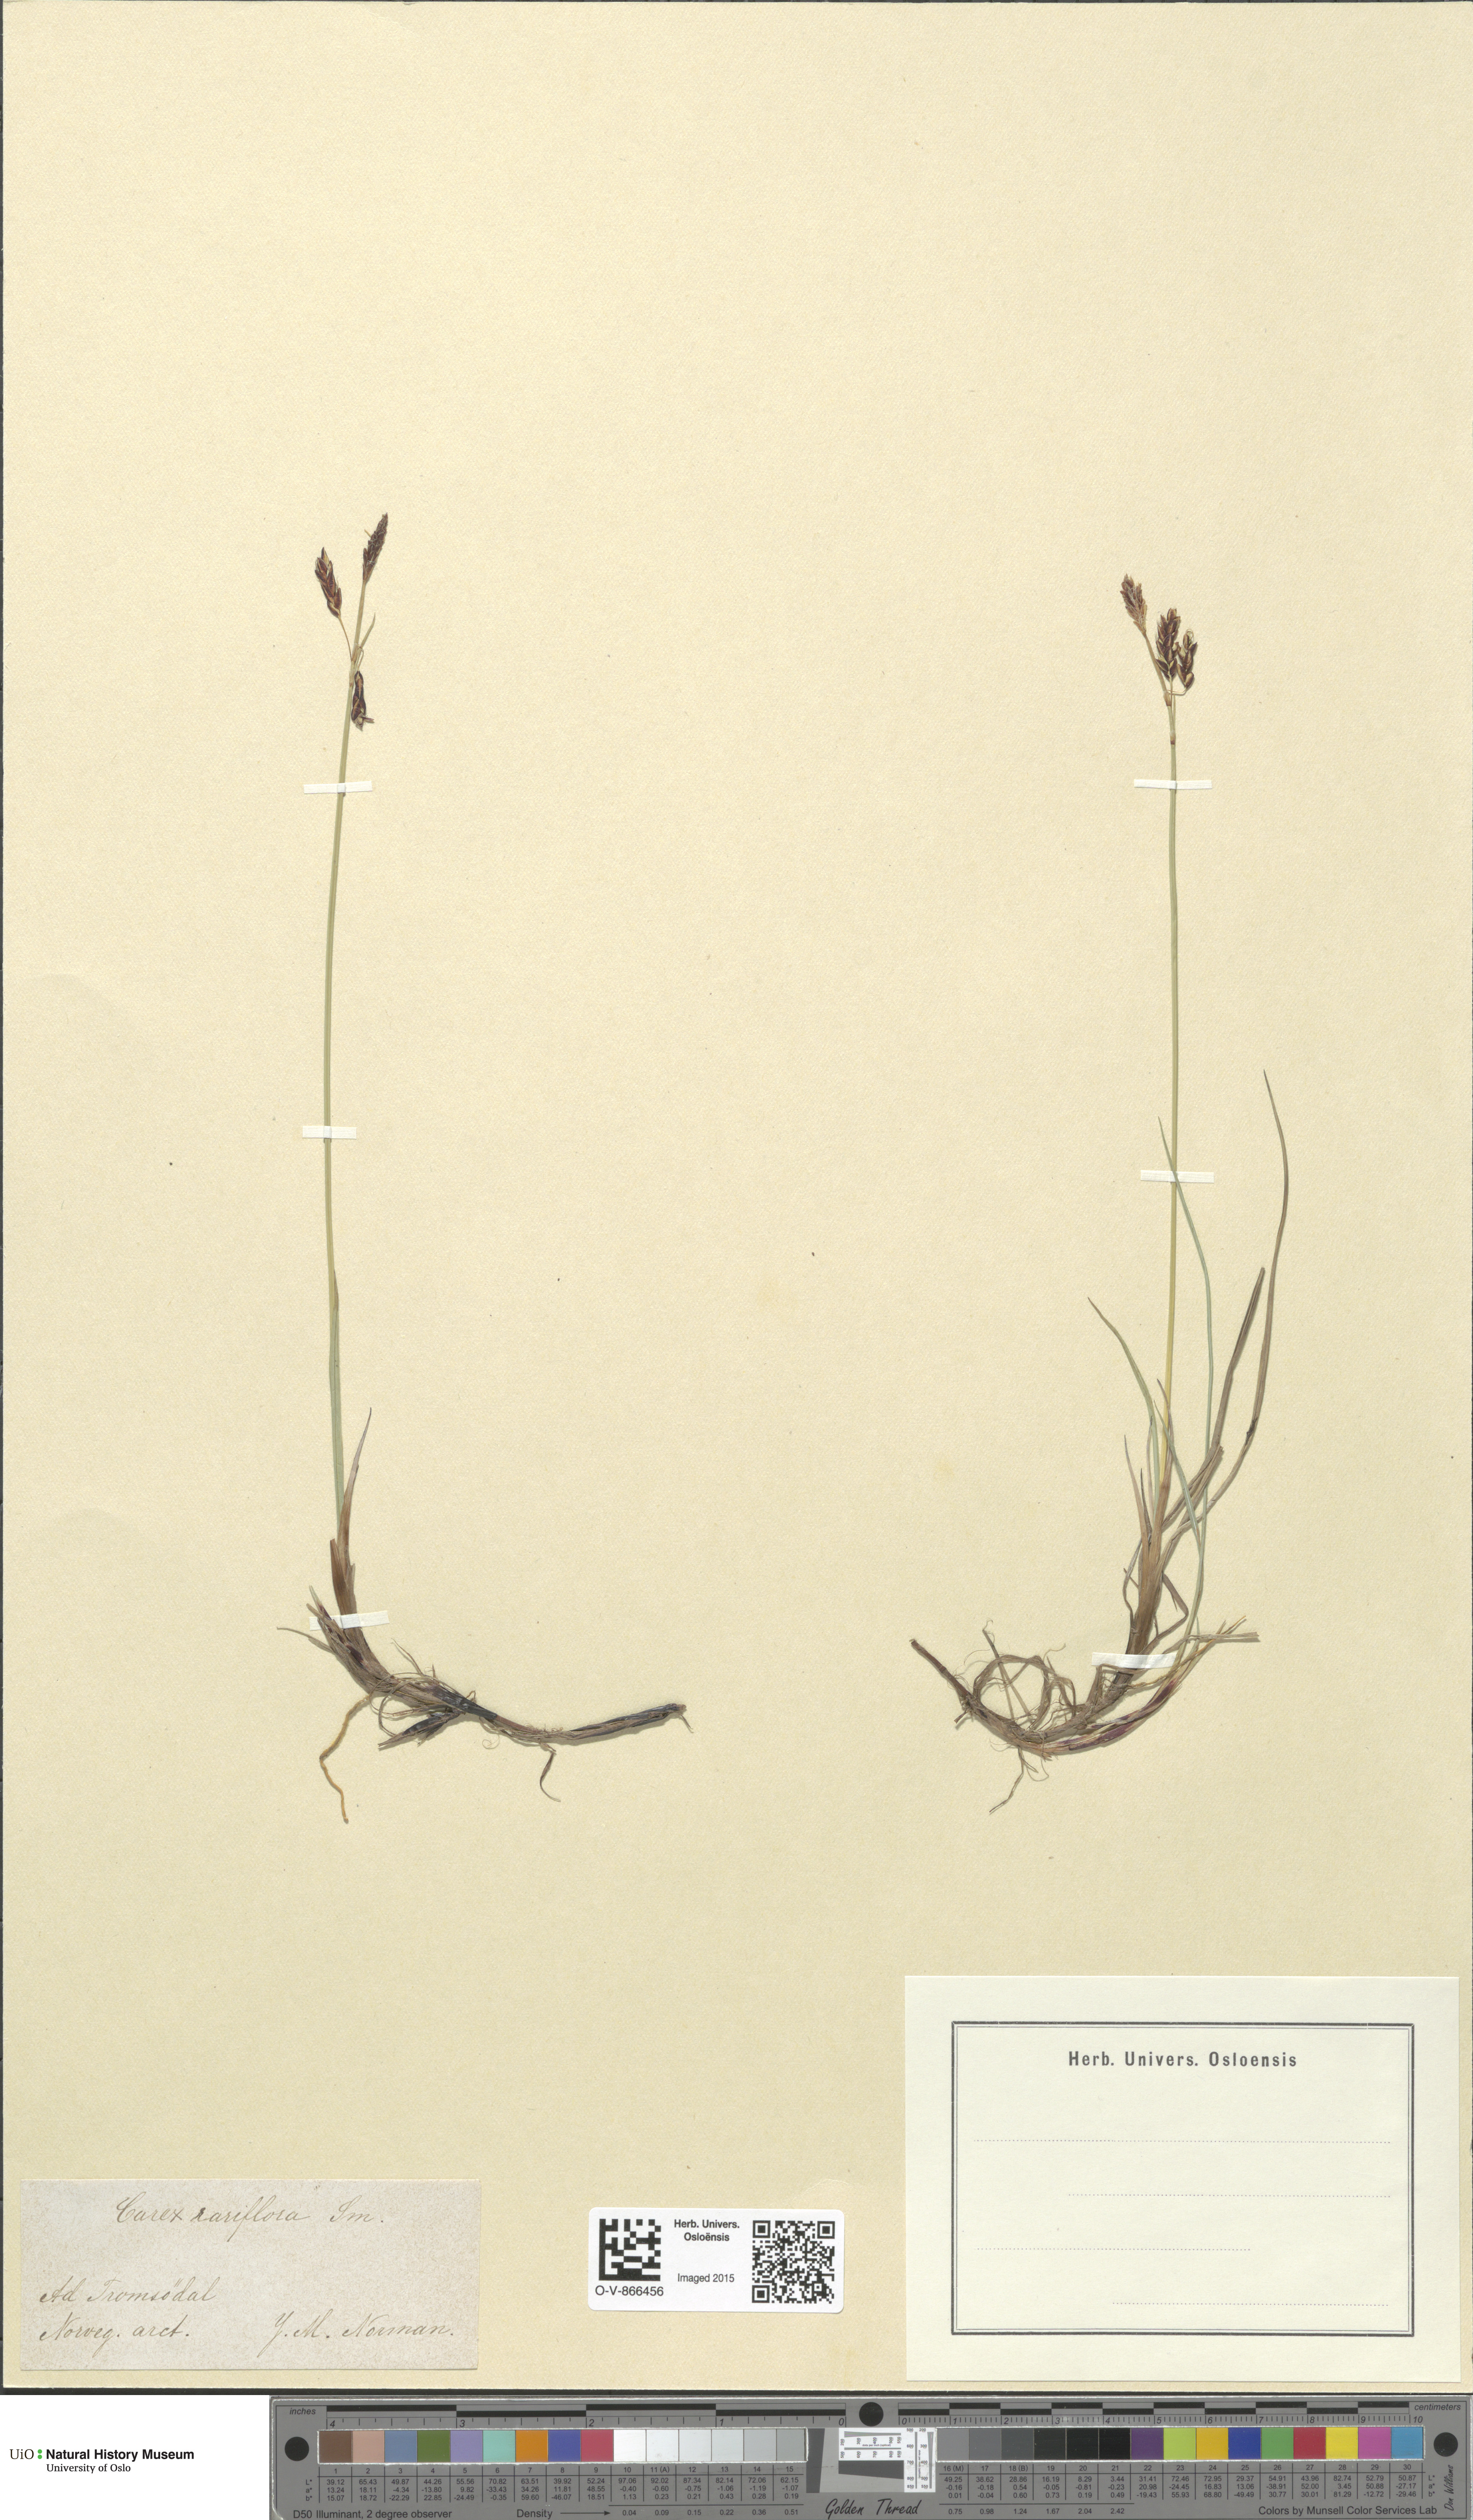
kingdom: Plantae
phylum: Tracheophyta
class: Liliopsida
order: Poales
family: Cyperaceae
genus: Carex
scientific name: Carex rariflora
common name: Loose-flowered alpine sedge
